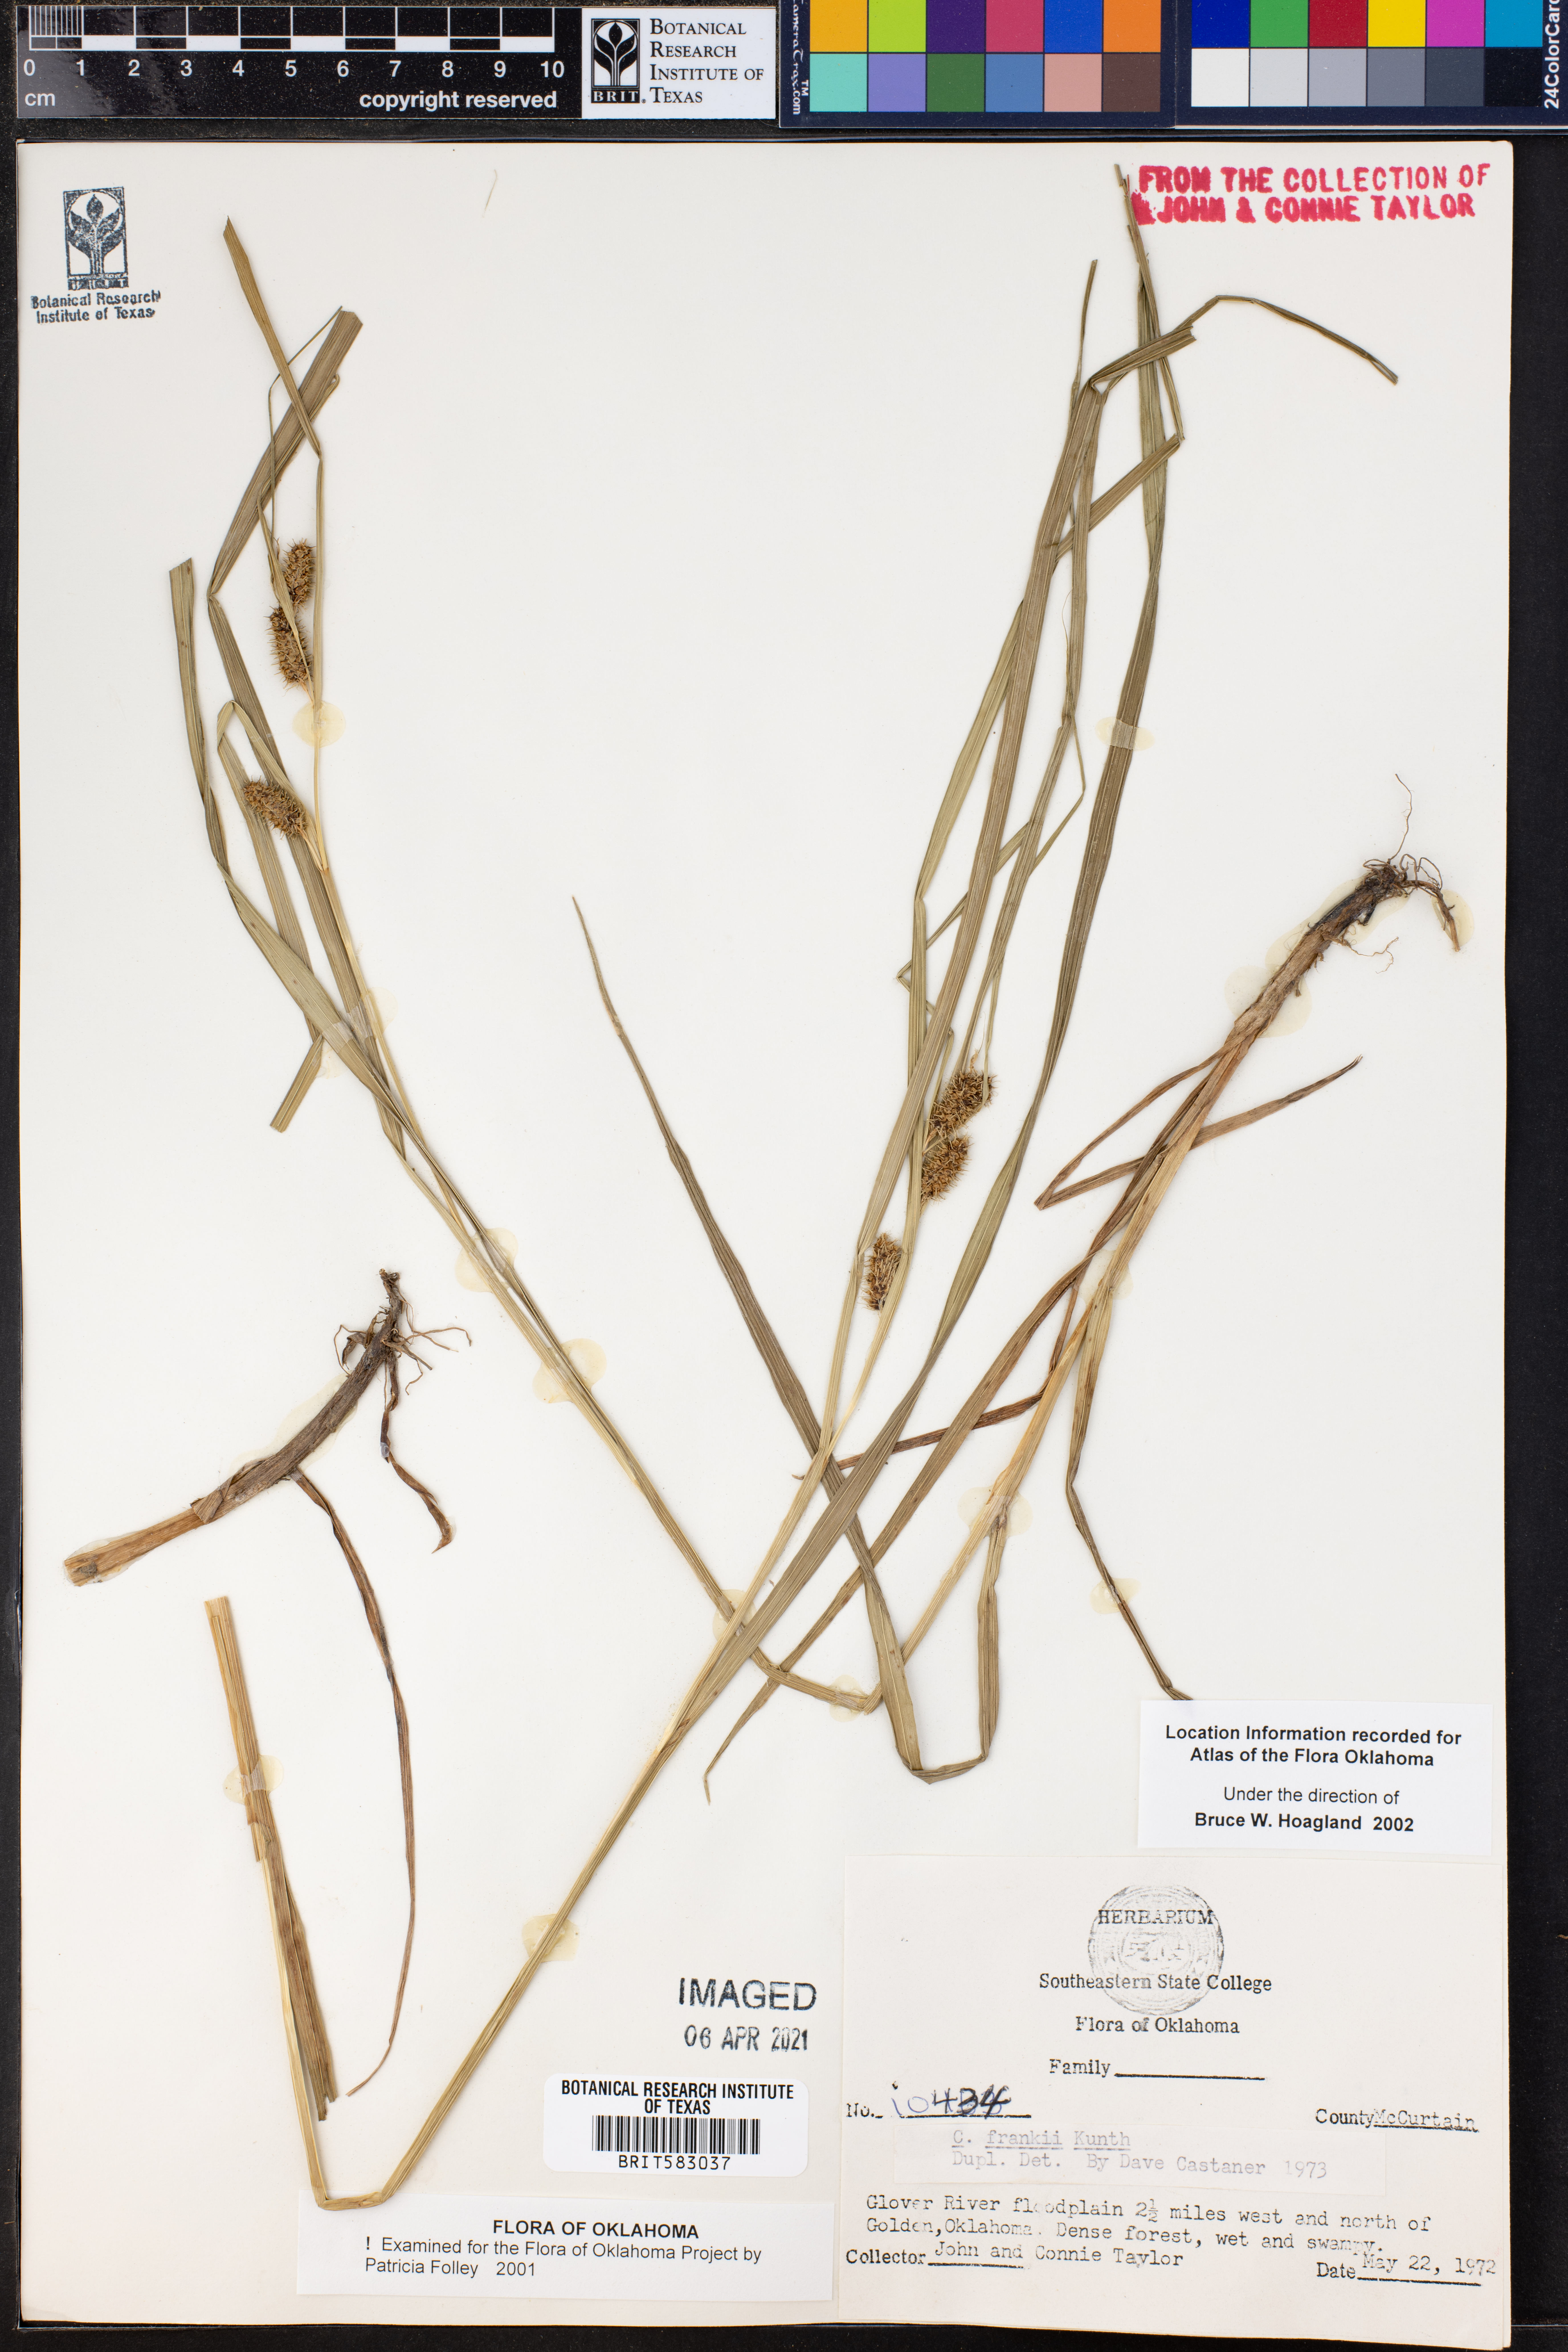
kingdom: Plantae
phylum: Tracheophyta
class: Liliopsida
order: Poales
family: Cyperaceae
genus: Carex
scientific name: Carex frankii
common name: Frank's sedge
